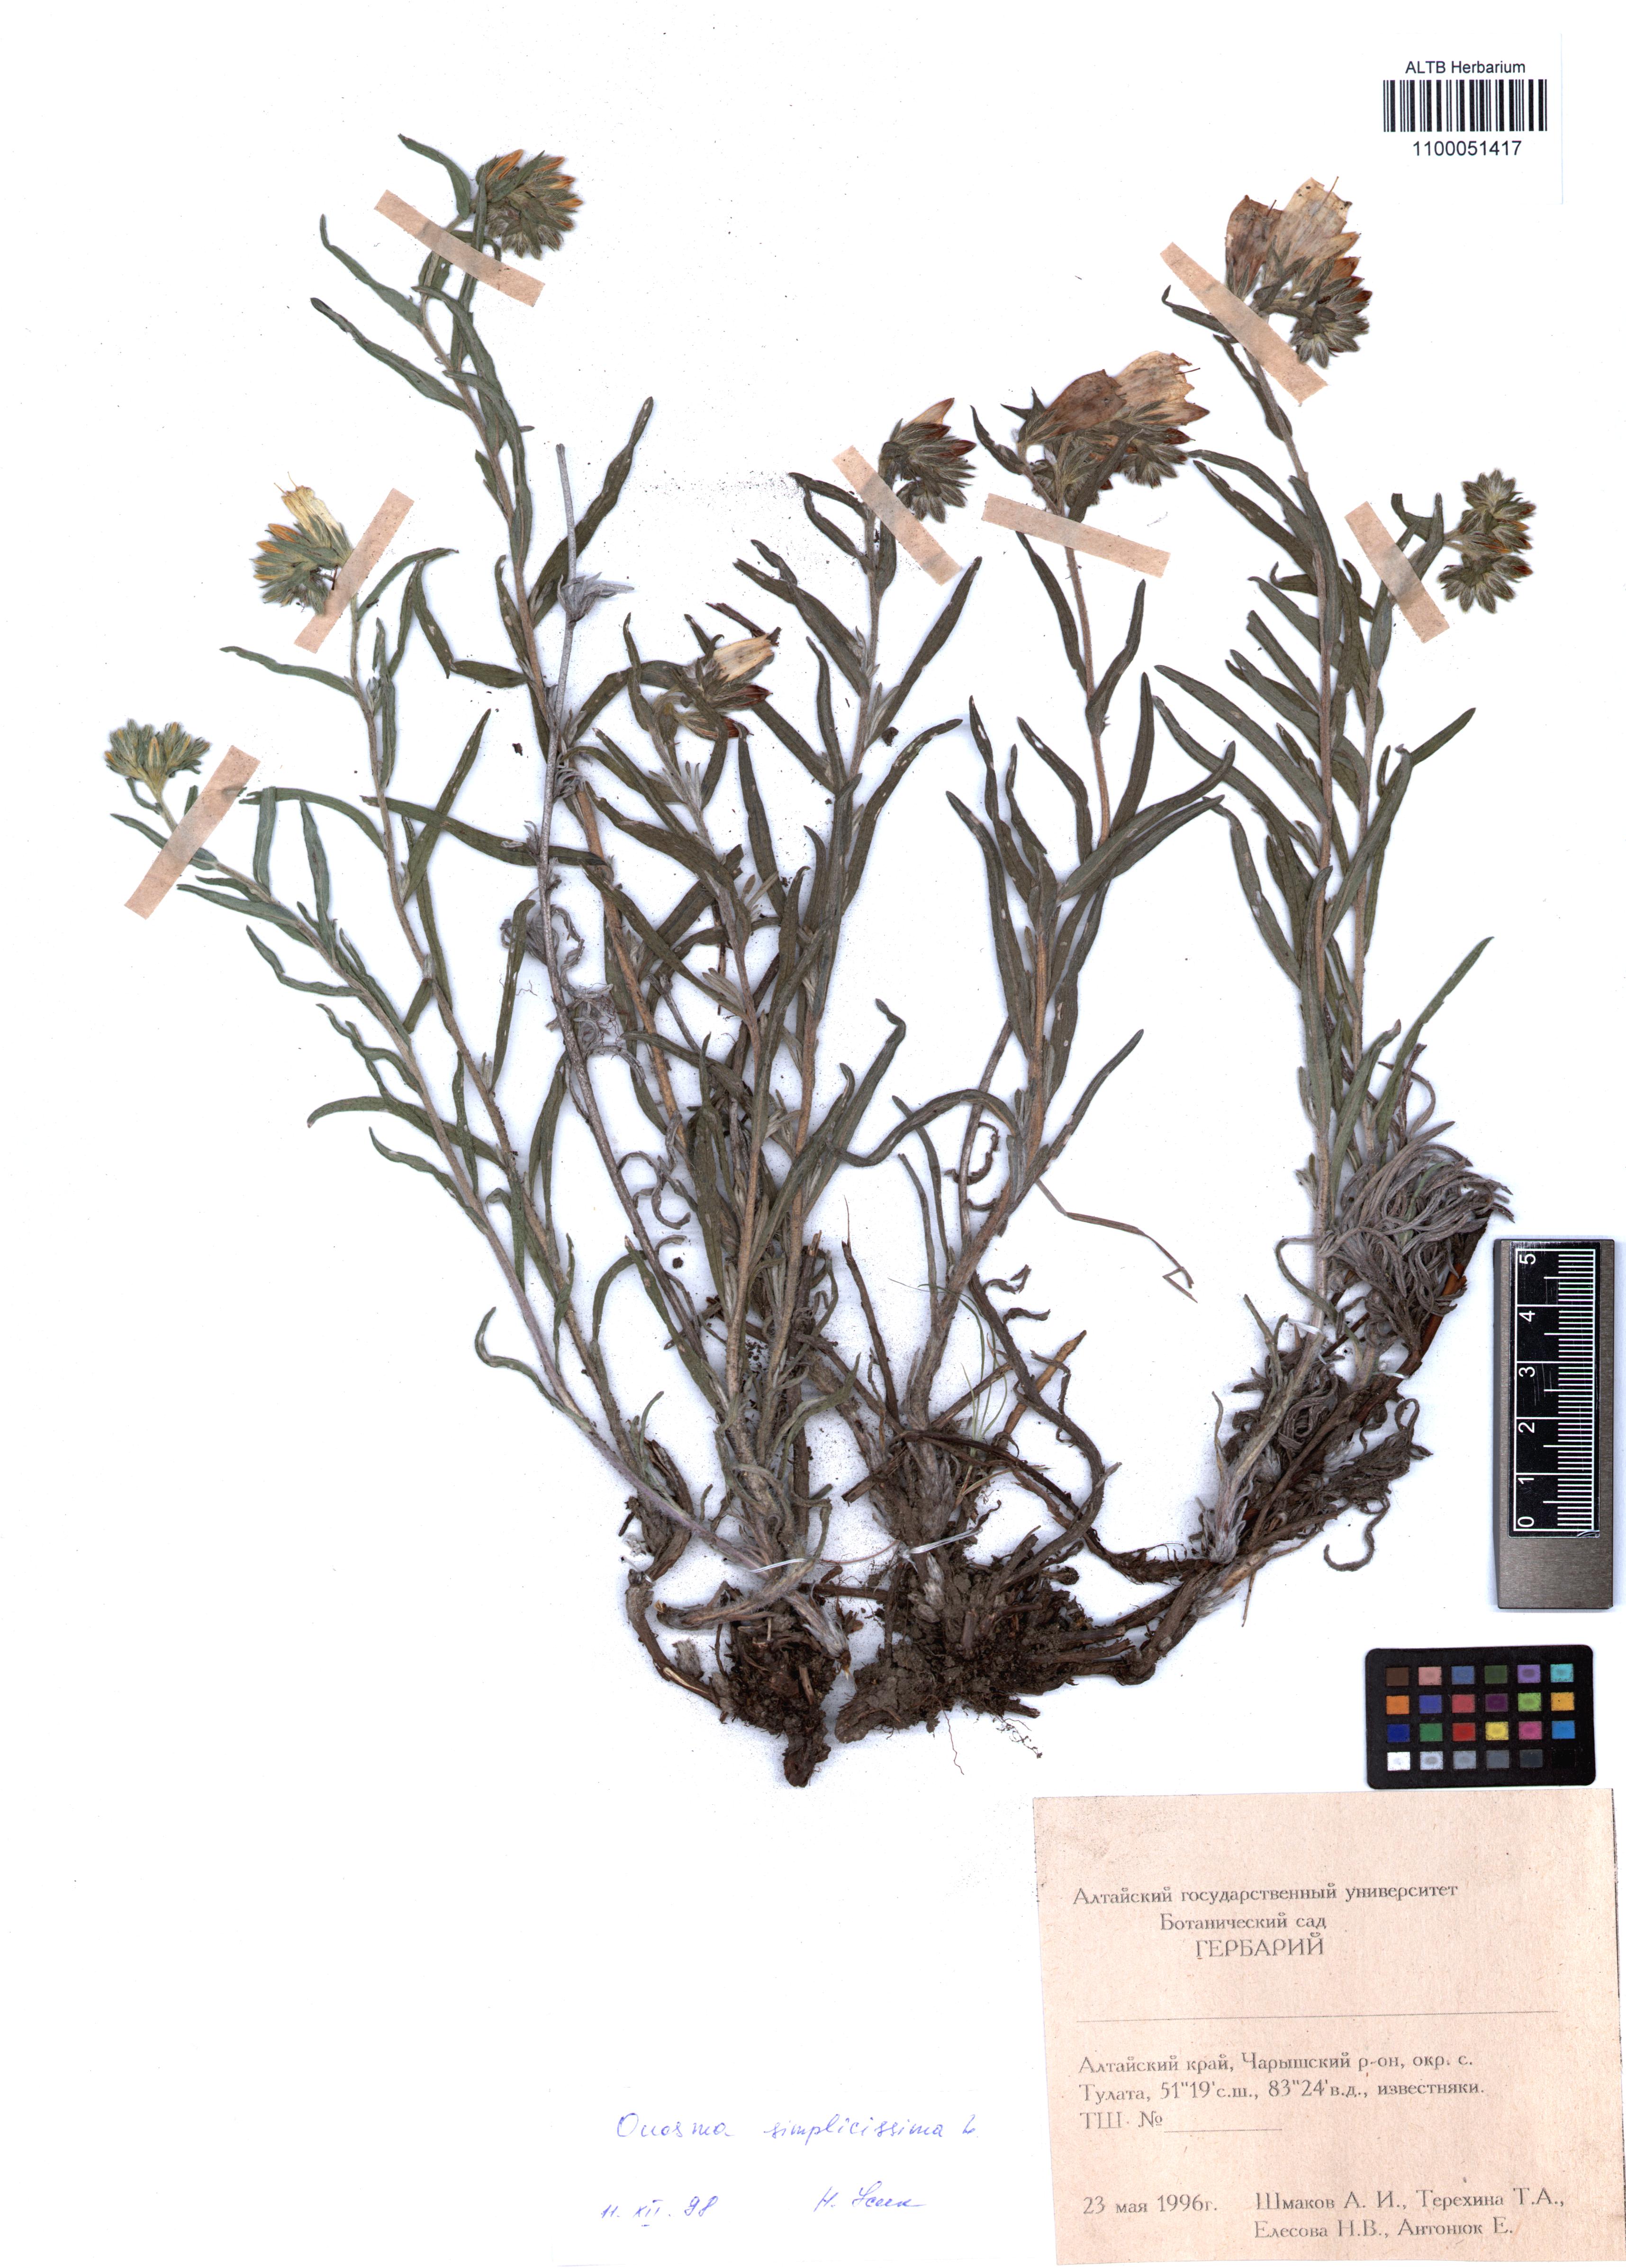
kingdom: Plantae
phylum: Tracheophyta
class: Magnoliopsida
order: Boraginales
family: Boraginaceae
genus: Onosma
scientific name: Onosma simplicissima
